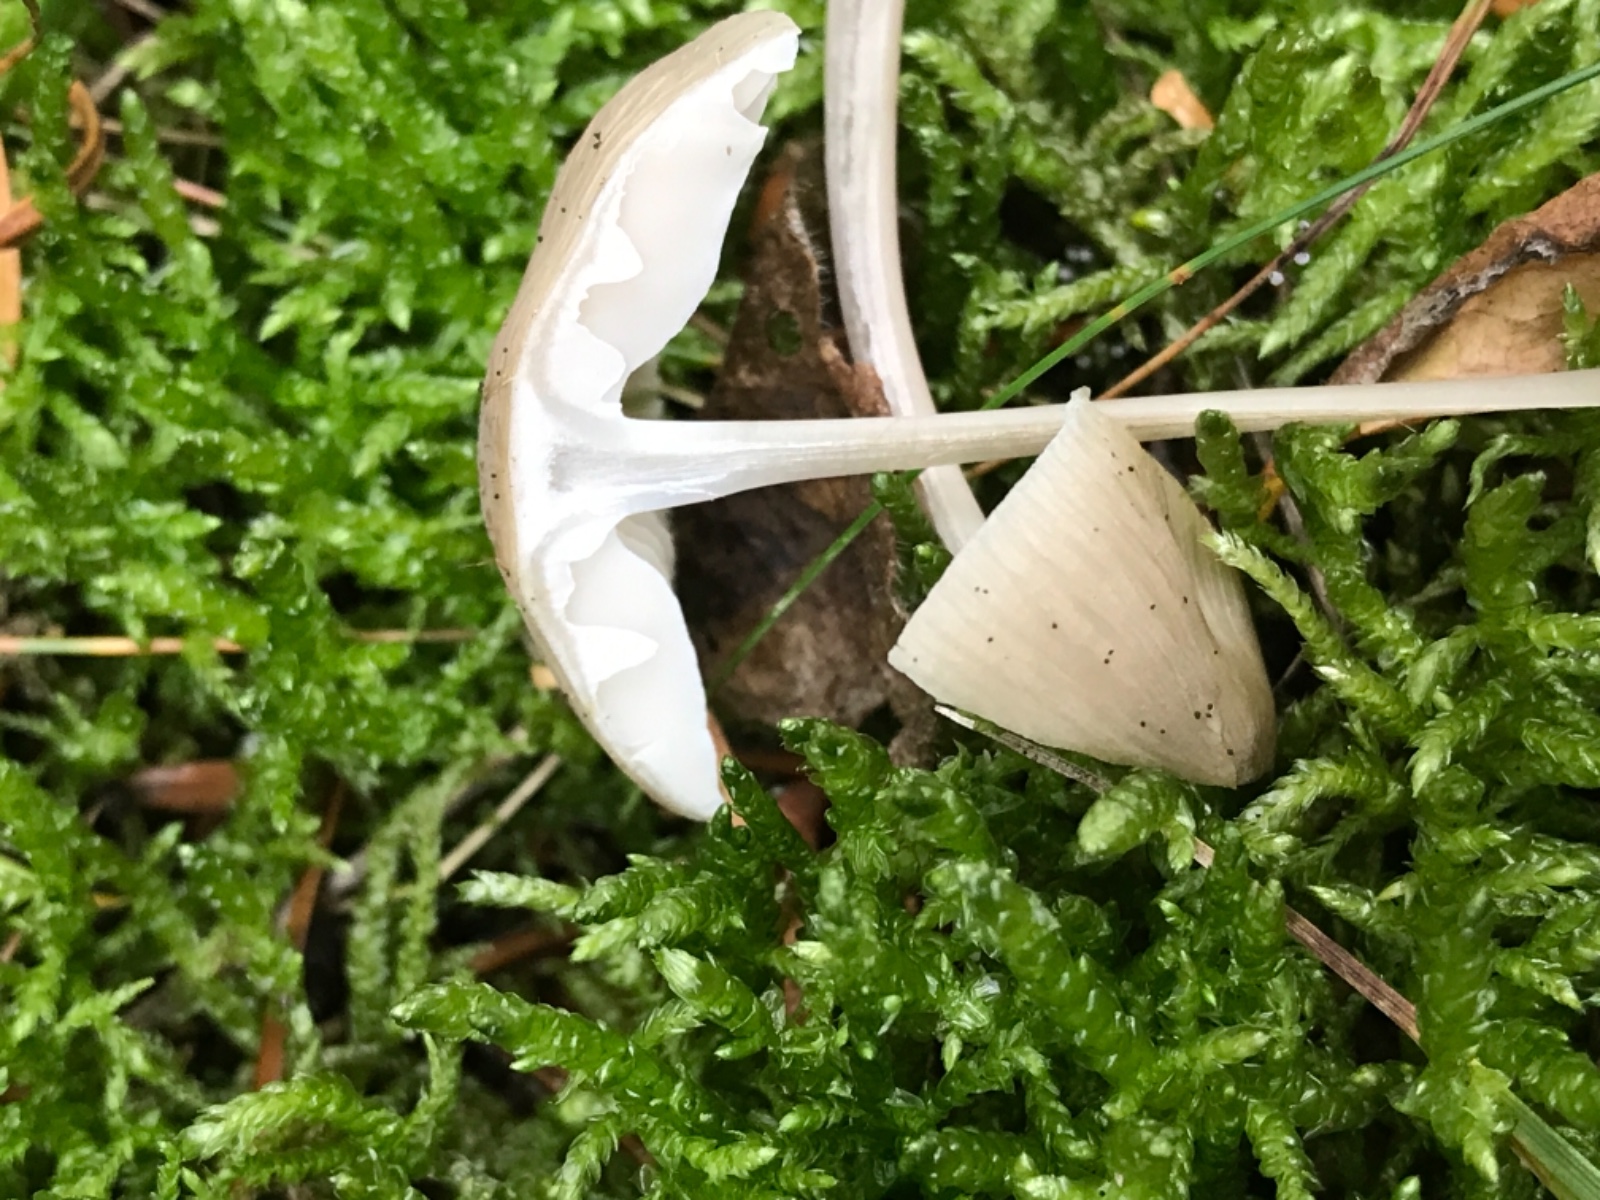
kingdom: Fungi
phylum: Basidiomycota
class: Agaricomycetes
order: Agaricales
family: Mycenaceae
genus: Mycena
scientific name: Mycena galericulata
